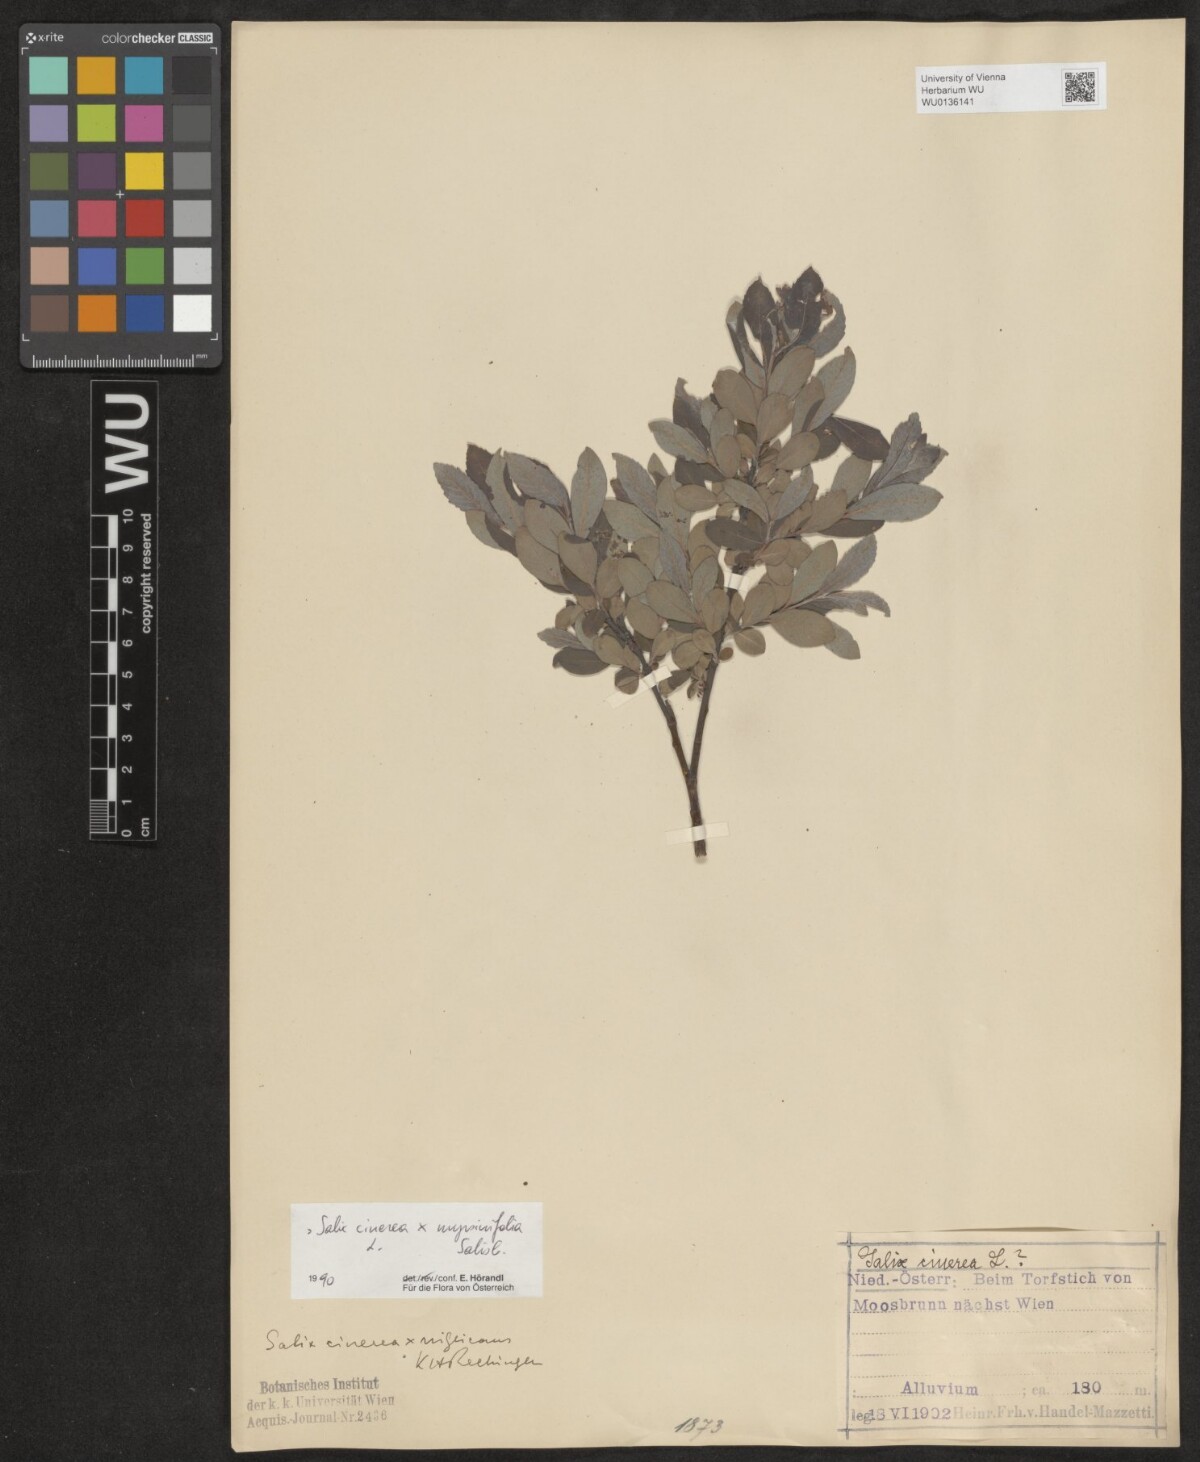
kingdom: Plantae
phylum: Tracheophyta
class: Magnoliopsida
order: Malpighiales
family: Salicaceae
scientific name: Salicaceae
